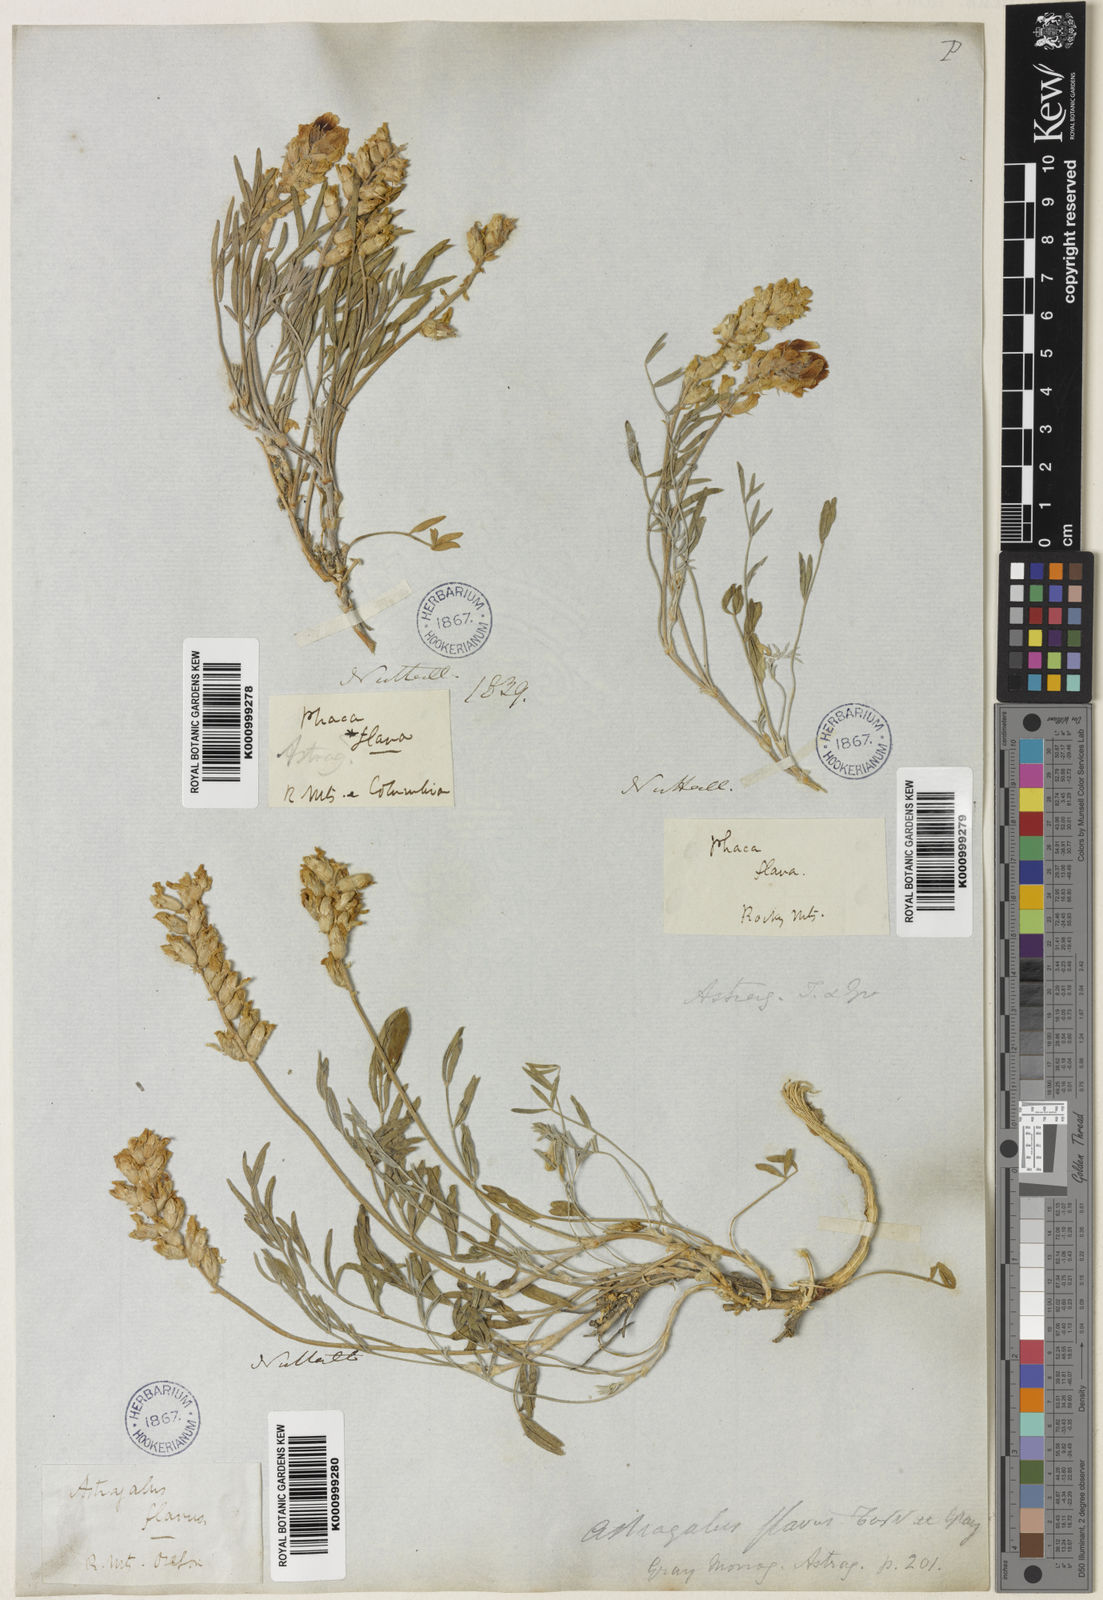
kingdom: Plantae
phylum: Tracheophyta
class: Magnoliopsida
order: Fabales
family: Fabaceae
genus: Astragalus
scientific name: Astragalus flavus
